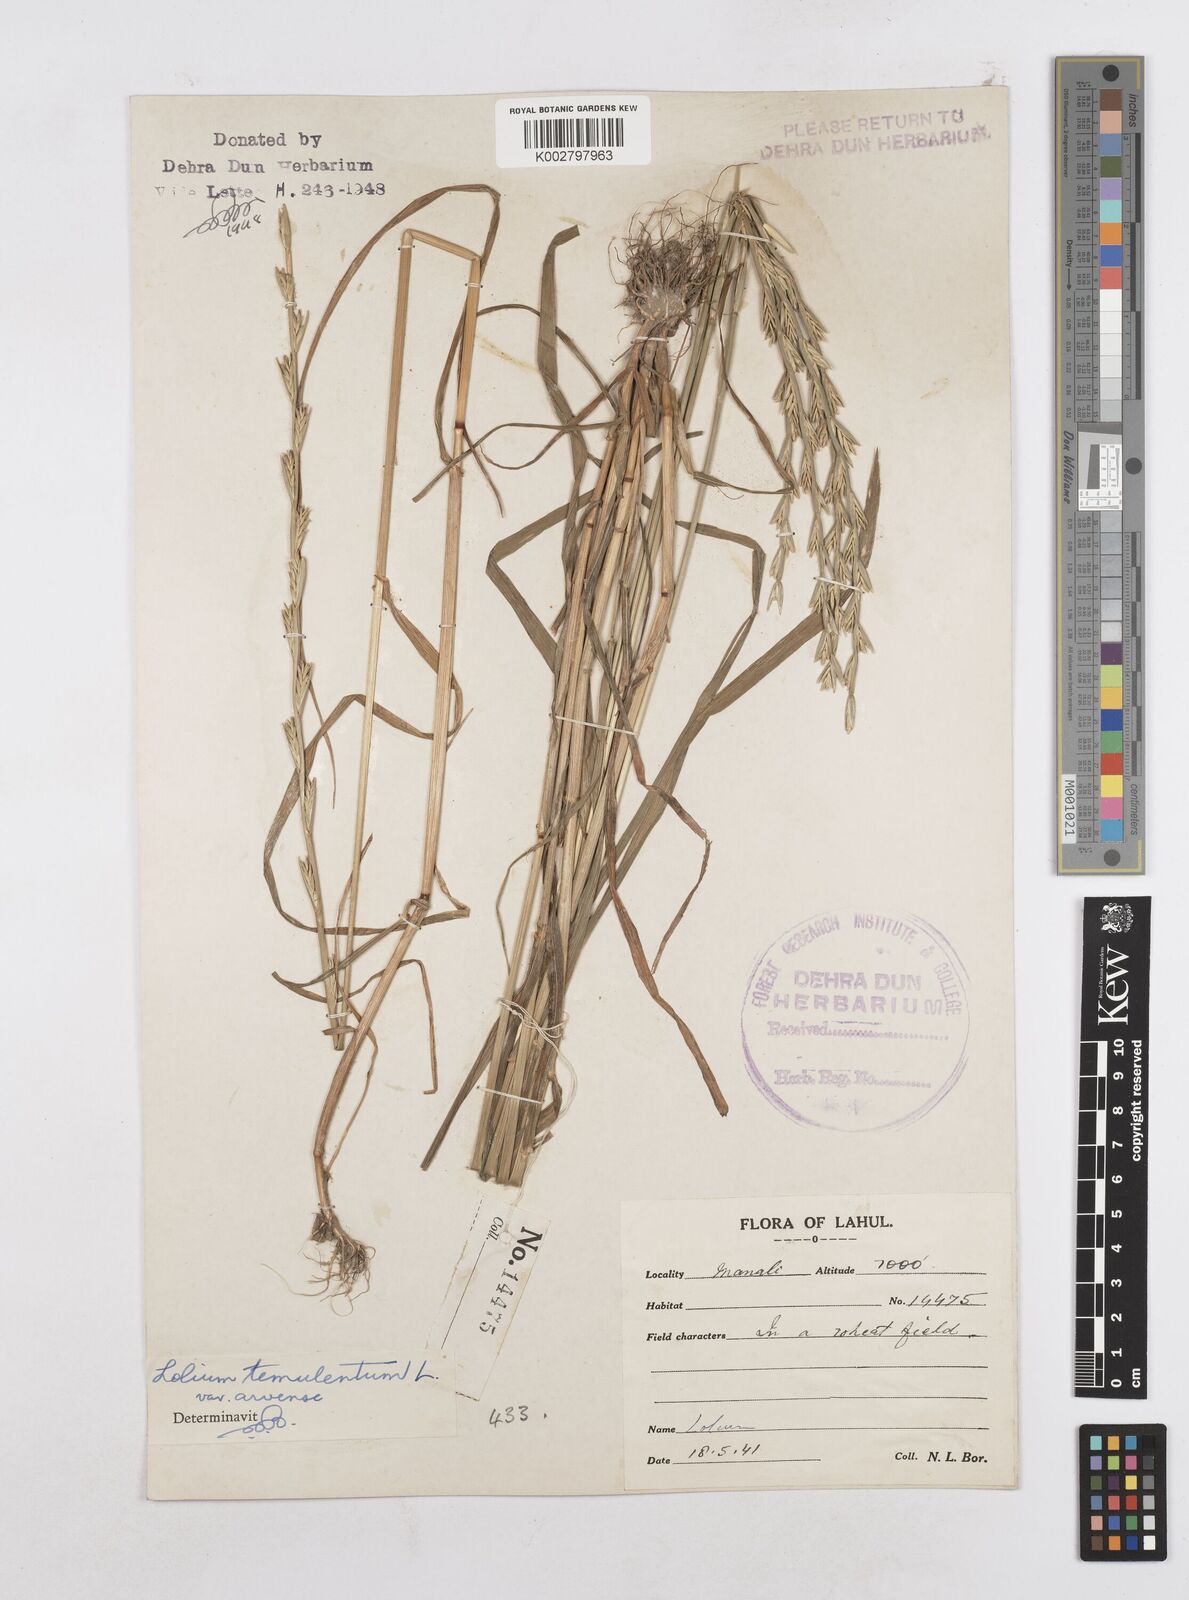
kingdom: Plantae
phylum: Tracheophyta
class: Liliopsida
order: Poales
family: Poaceae
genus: Lolium
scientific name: Lolium temulentum
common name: Darnel
